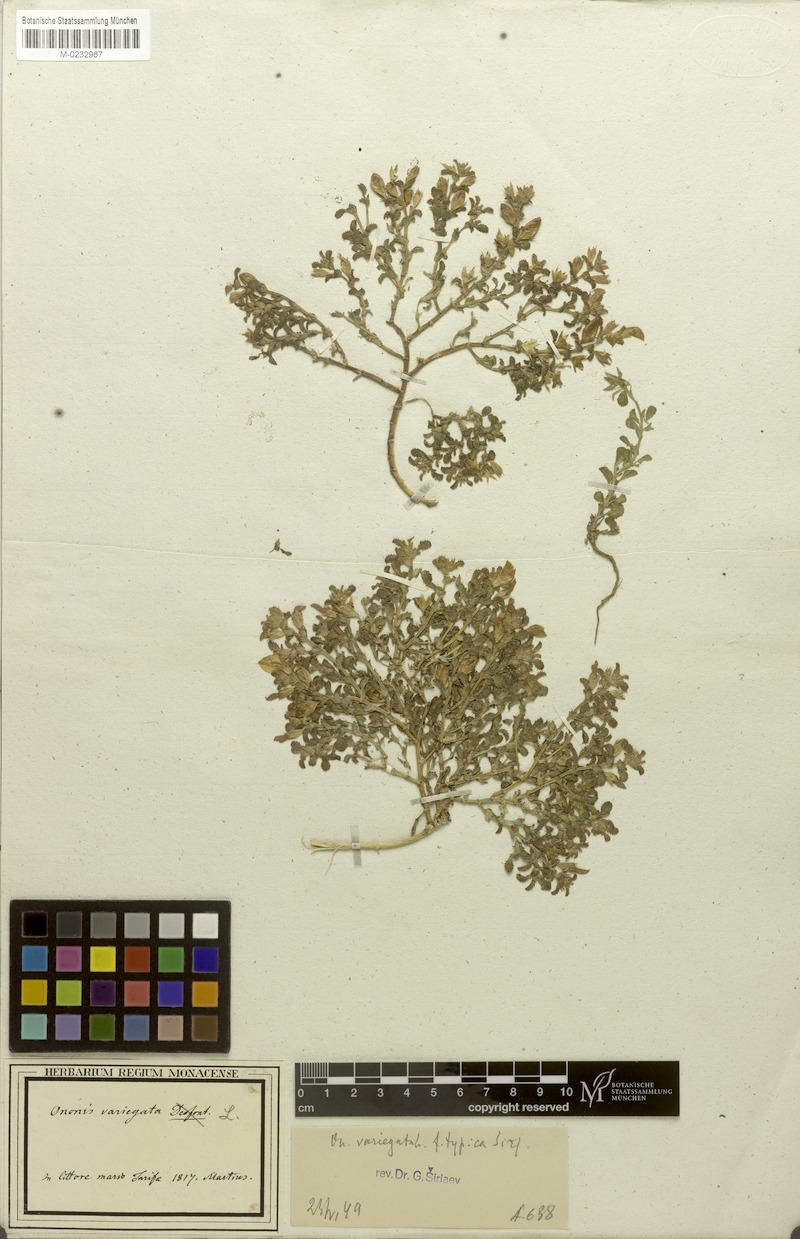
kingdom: Plantae
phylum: Tracheophyta
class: Magnoliopsida
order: Fabales
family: Fabaceae
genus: Ononis
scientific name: Ononis variegata
